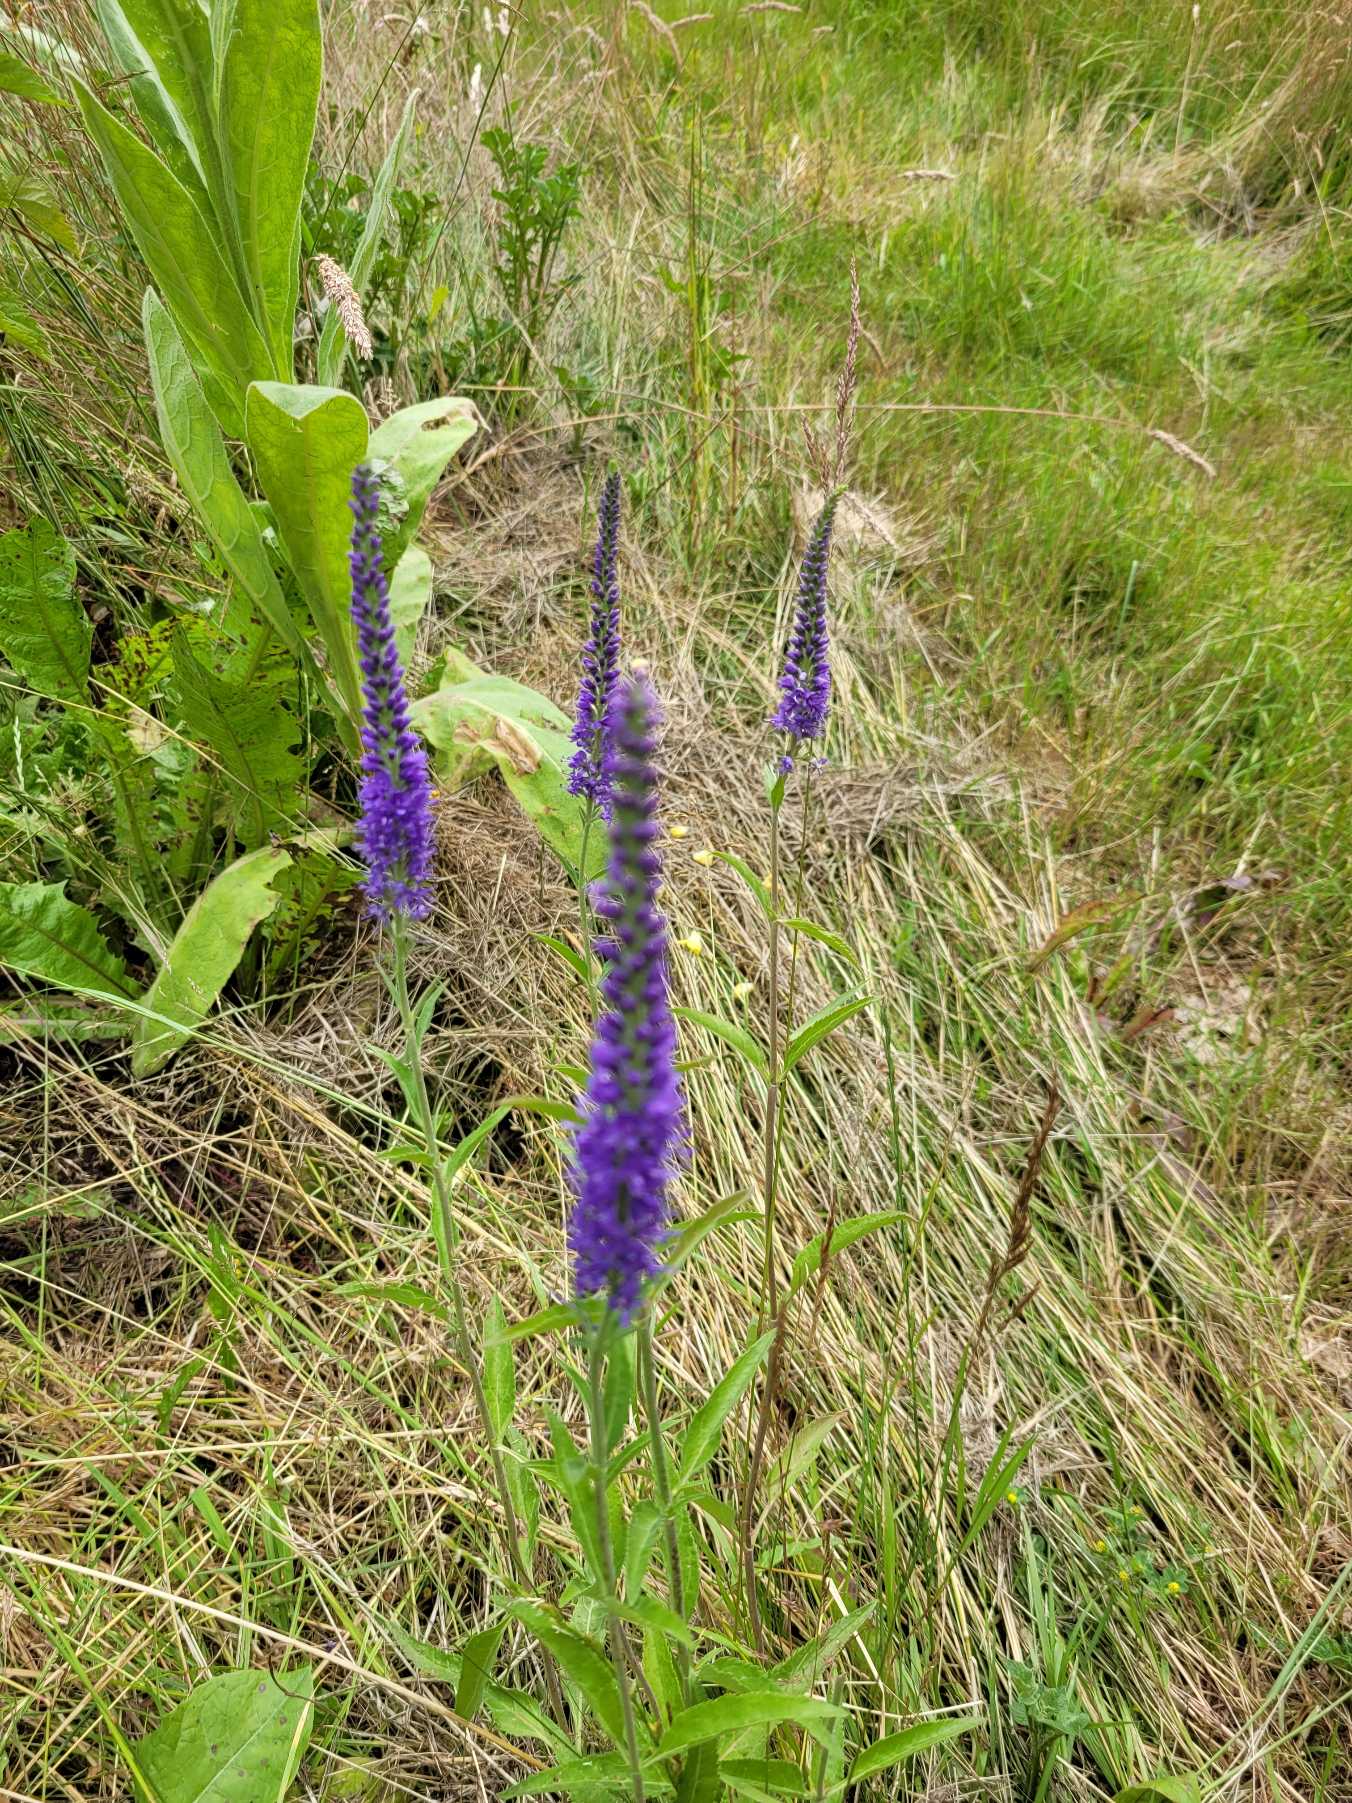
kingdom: Plantae
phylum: Tracheophyta
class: Magnoliopsida
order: Lamiales
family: Plantaginaceae
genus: Veronica
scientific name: Veronica spicata
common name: Aks-ærenpris
